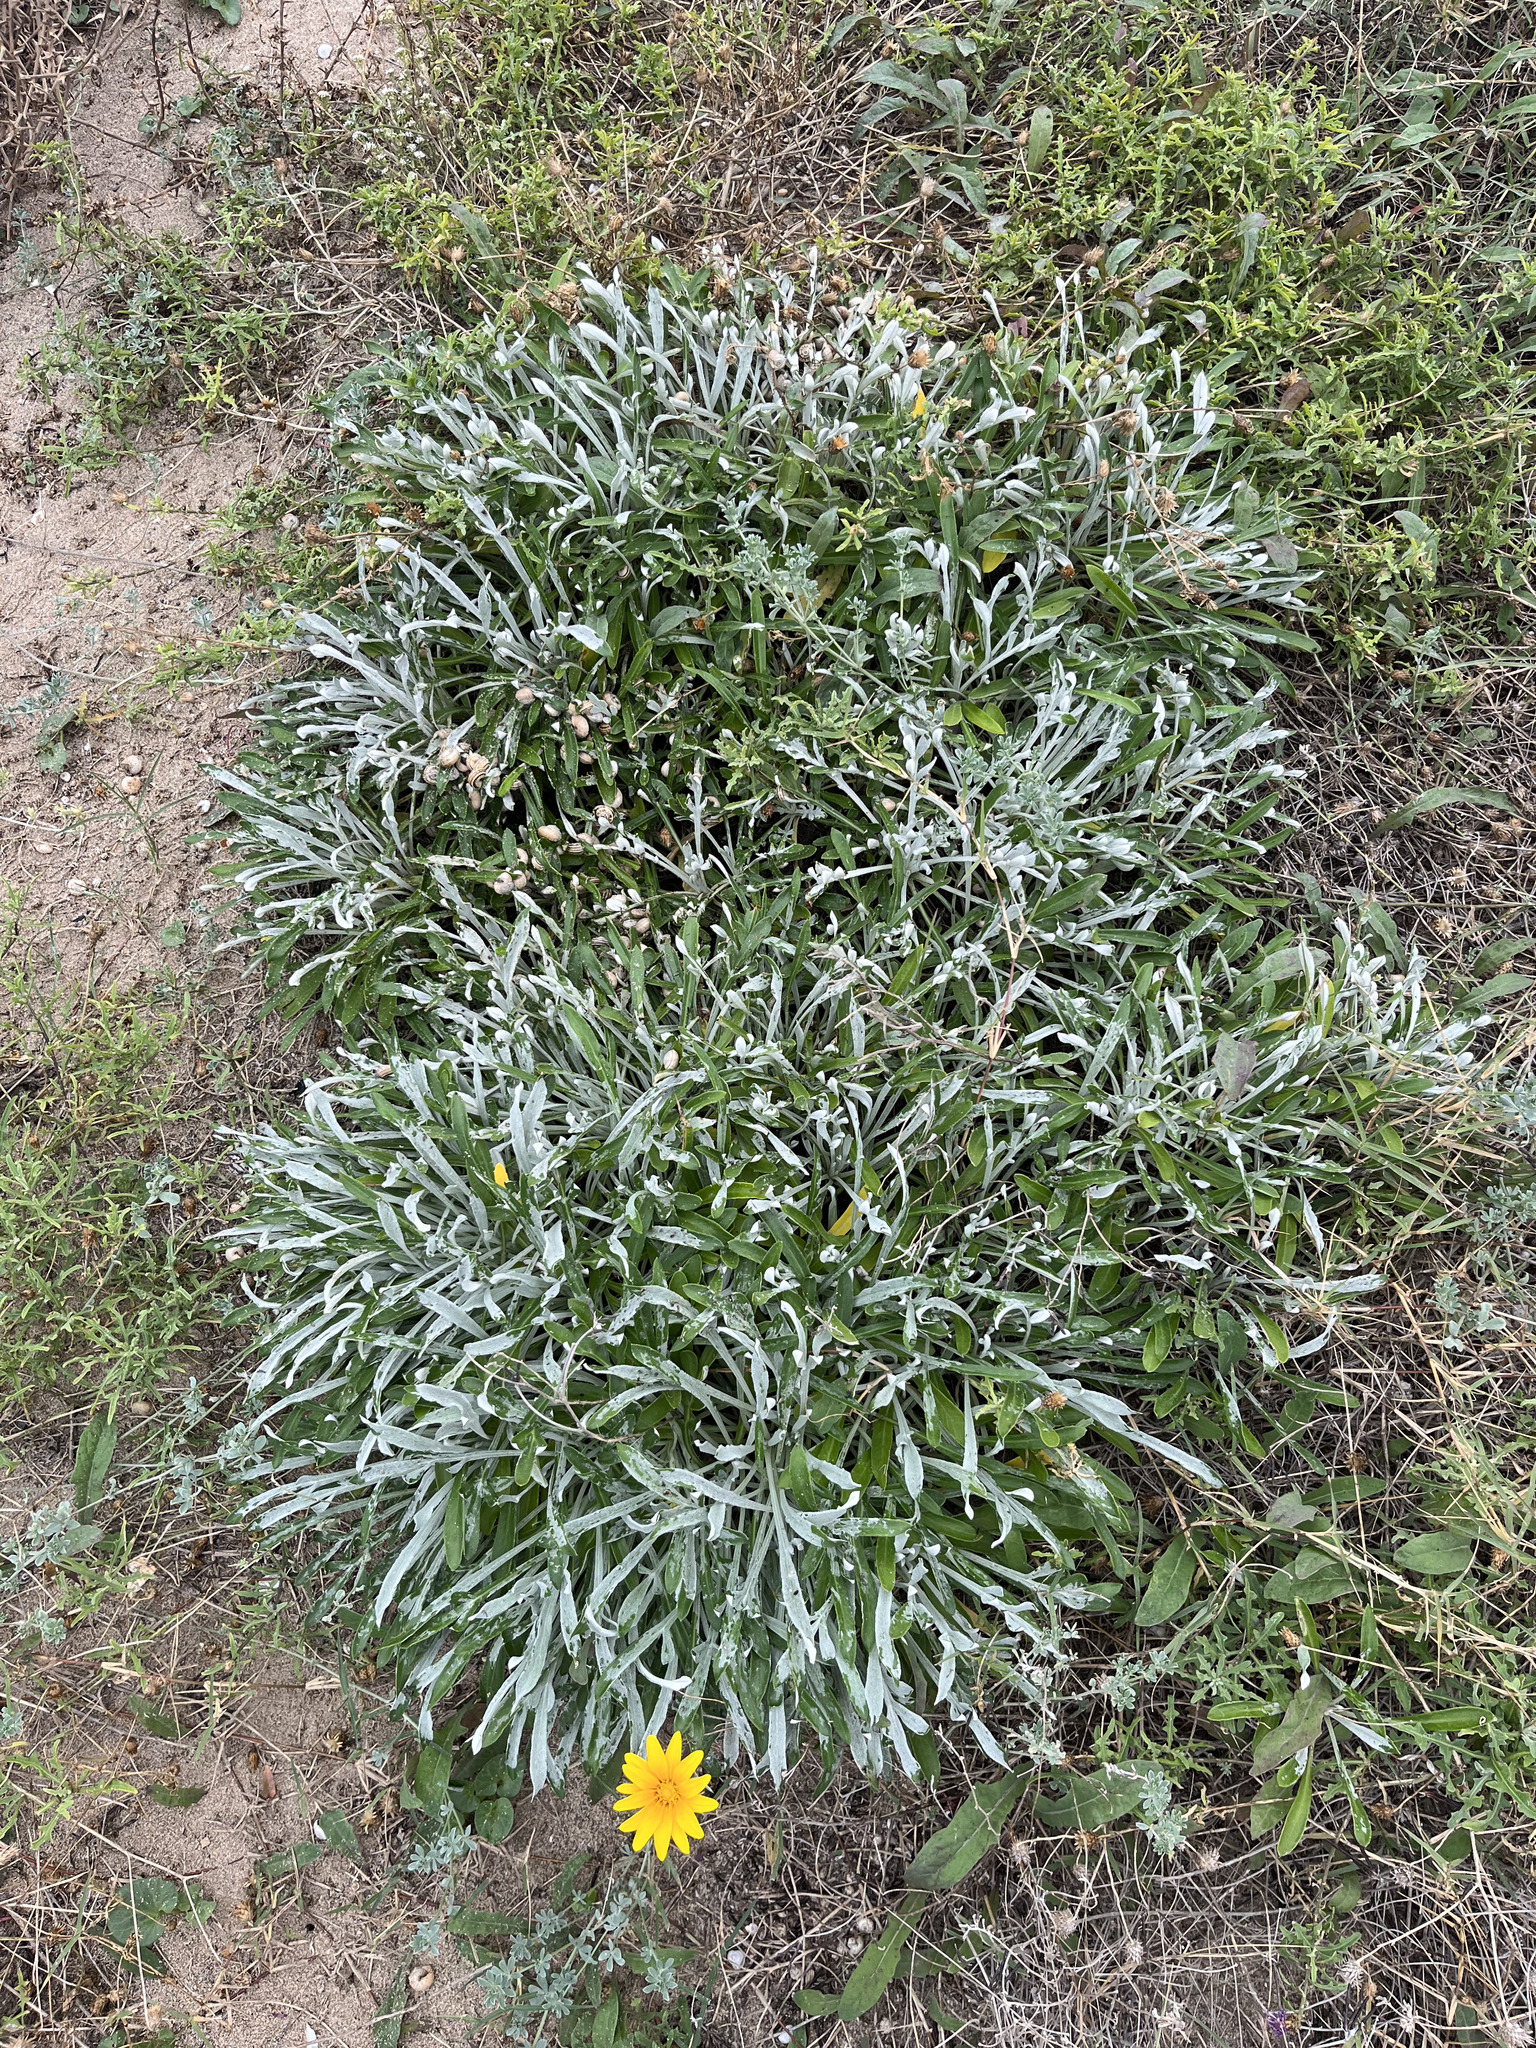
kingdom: Plantae
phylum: Tracheophyta
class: Magnoliopsida
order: Asterales
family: Asteraceae
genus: Gazania
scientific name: Gazania rigens
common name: Treasureflower
